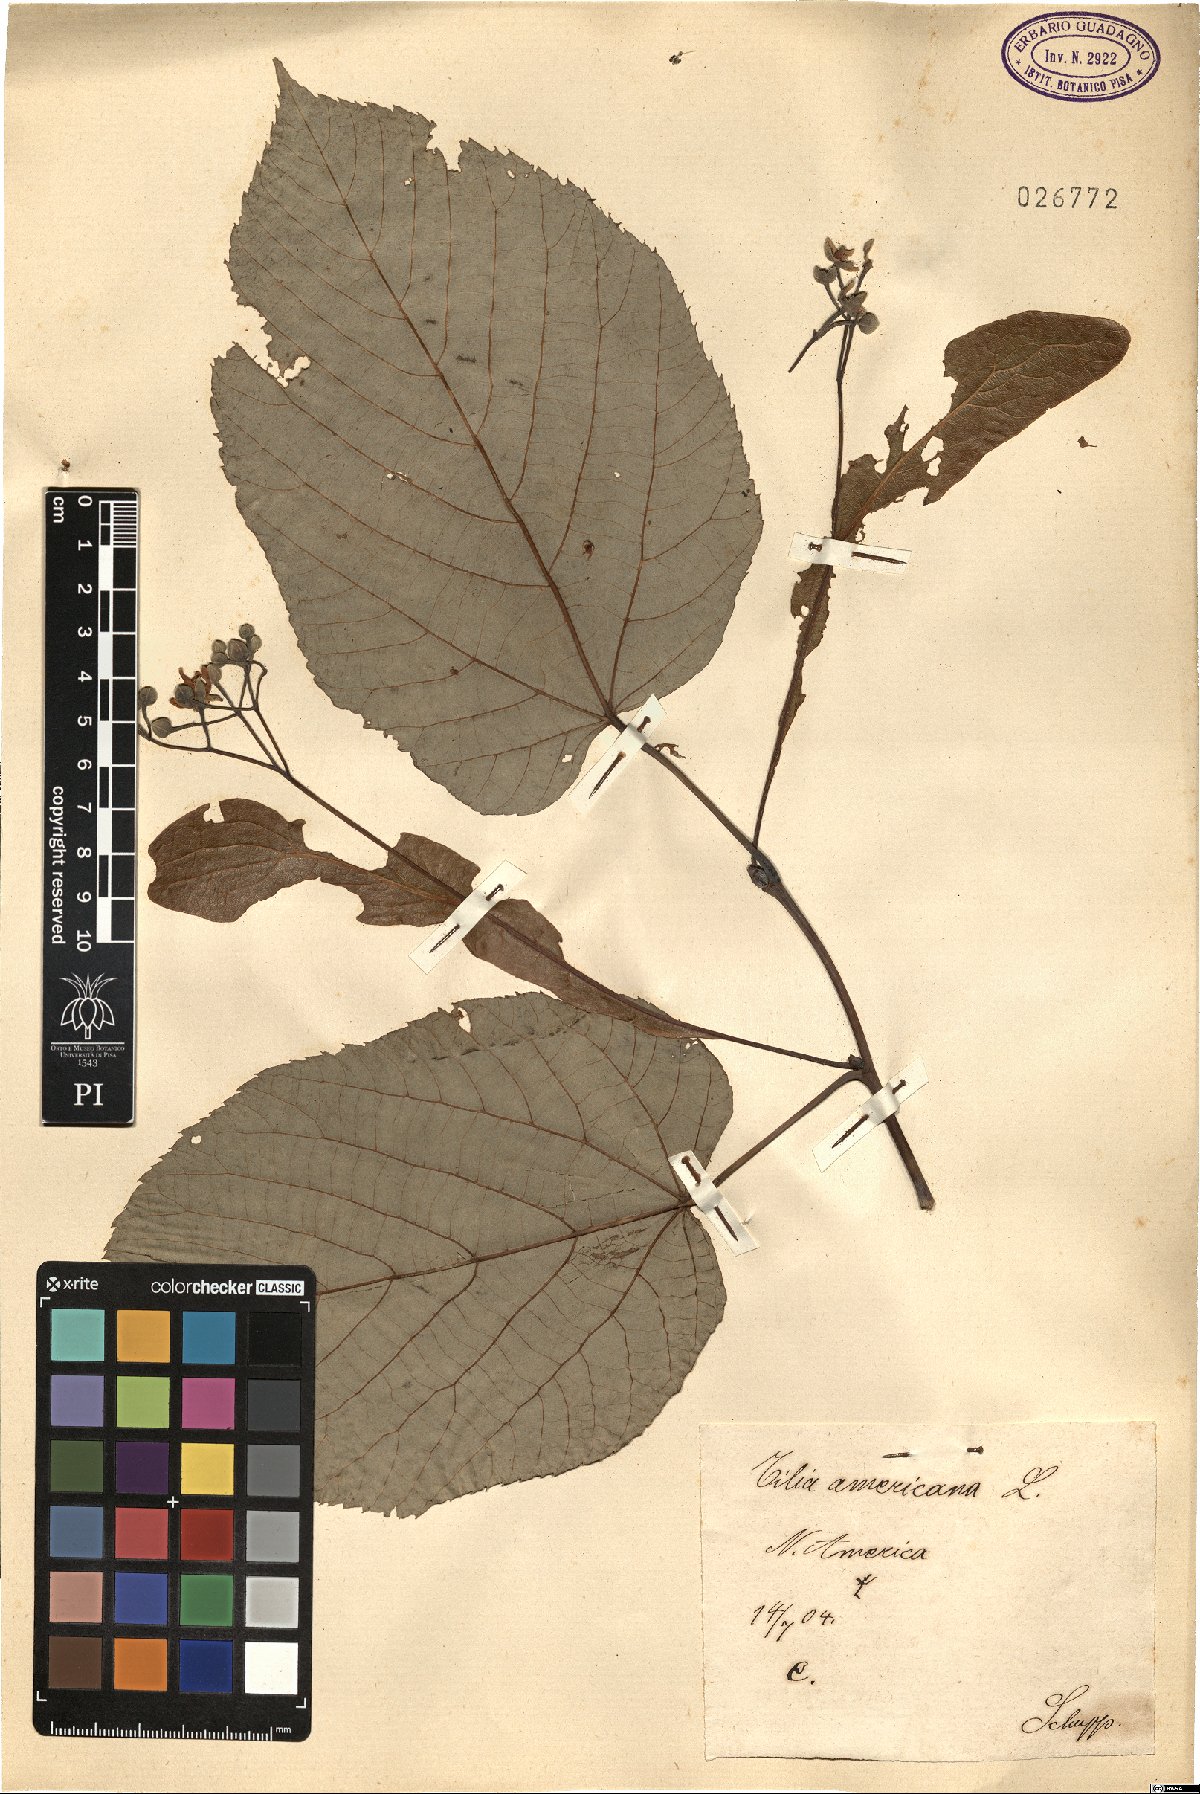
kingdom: Plantae
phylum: Tracheophyta
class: Magnoliopsida
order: Malvales
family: Malvaceae
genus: Tilia
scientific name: Tilia americana
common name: Basswood
